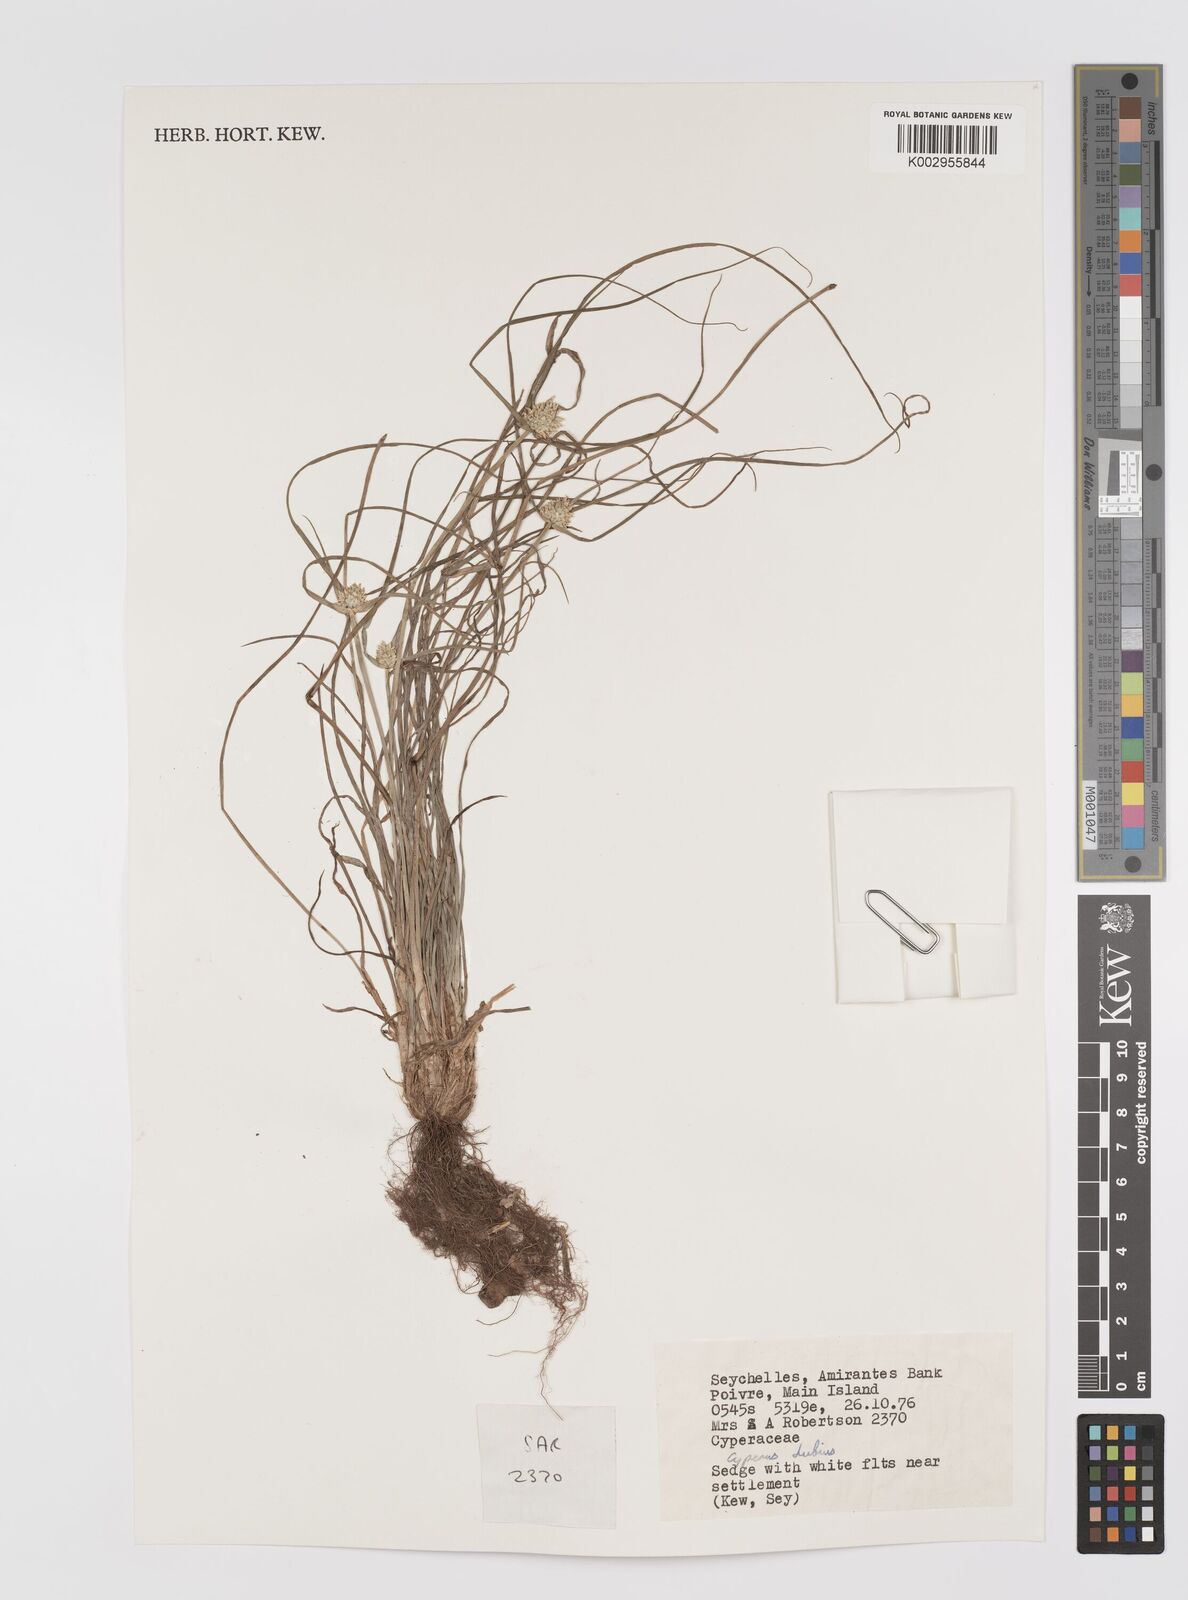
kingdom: Plantae
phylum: Tracheophyta
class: Liliopsida
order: Poales
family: Cyperaceae
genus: Cyperus
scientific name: Cyperus dubius
